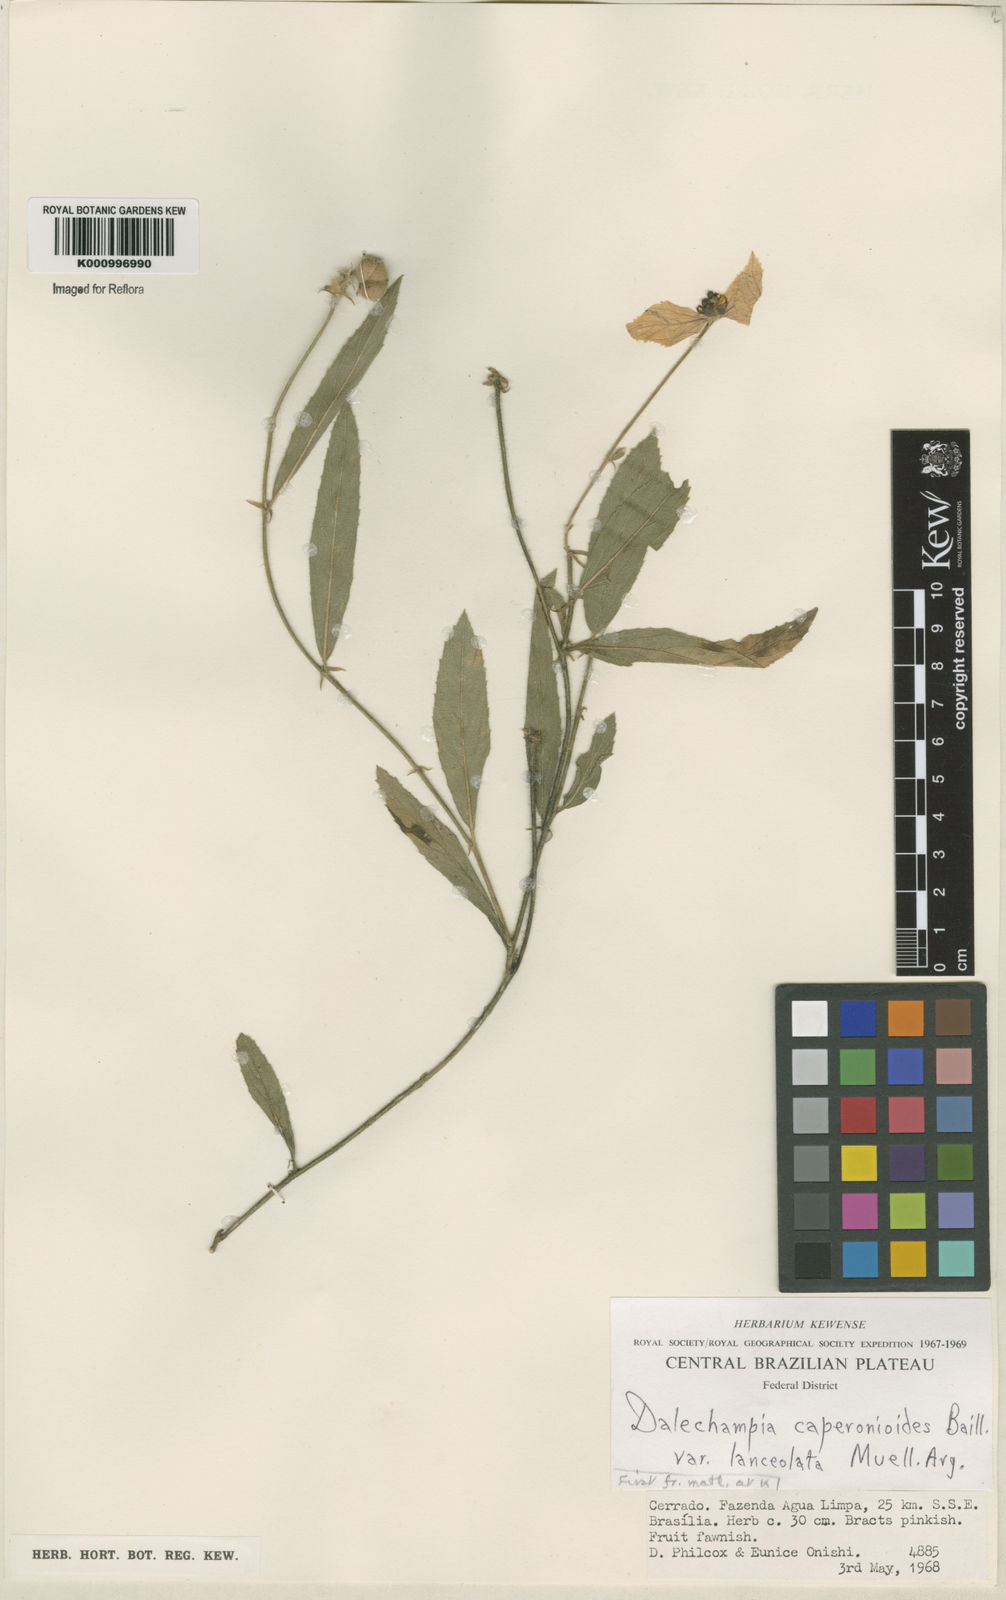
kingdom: Plantae
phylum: Tracheophyta
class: Magnoliopsida
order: Malpighiales
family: Euphorbiaceae
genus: Dalechampia
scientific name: Dalechampia caperonioides
